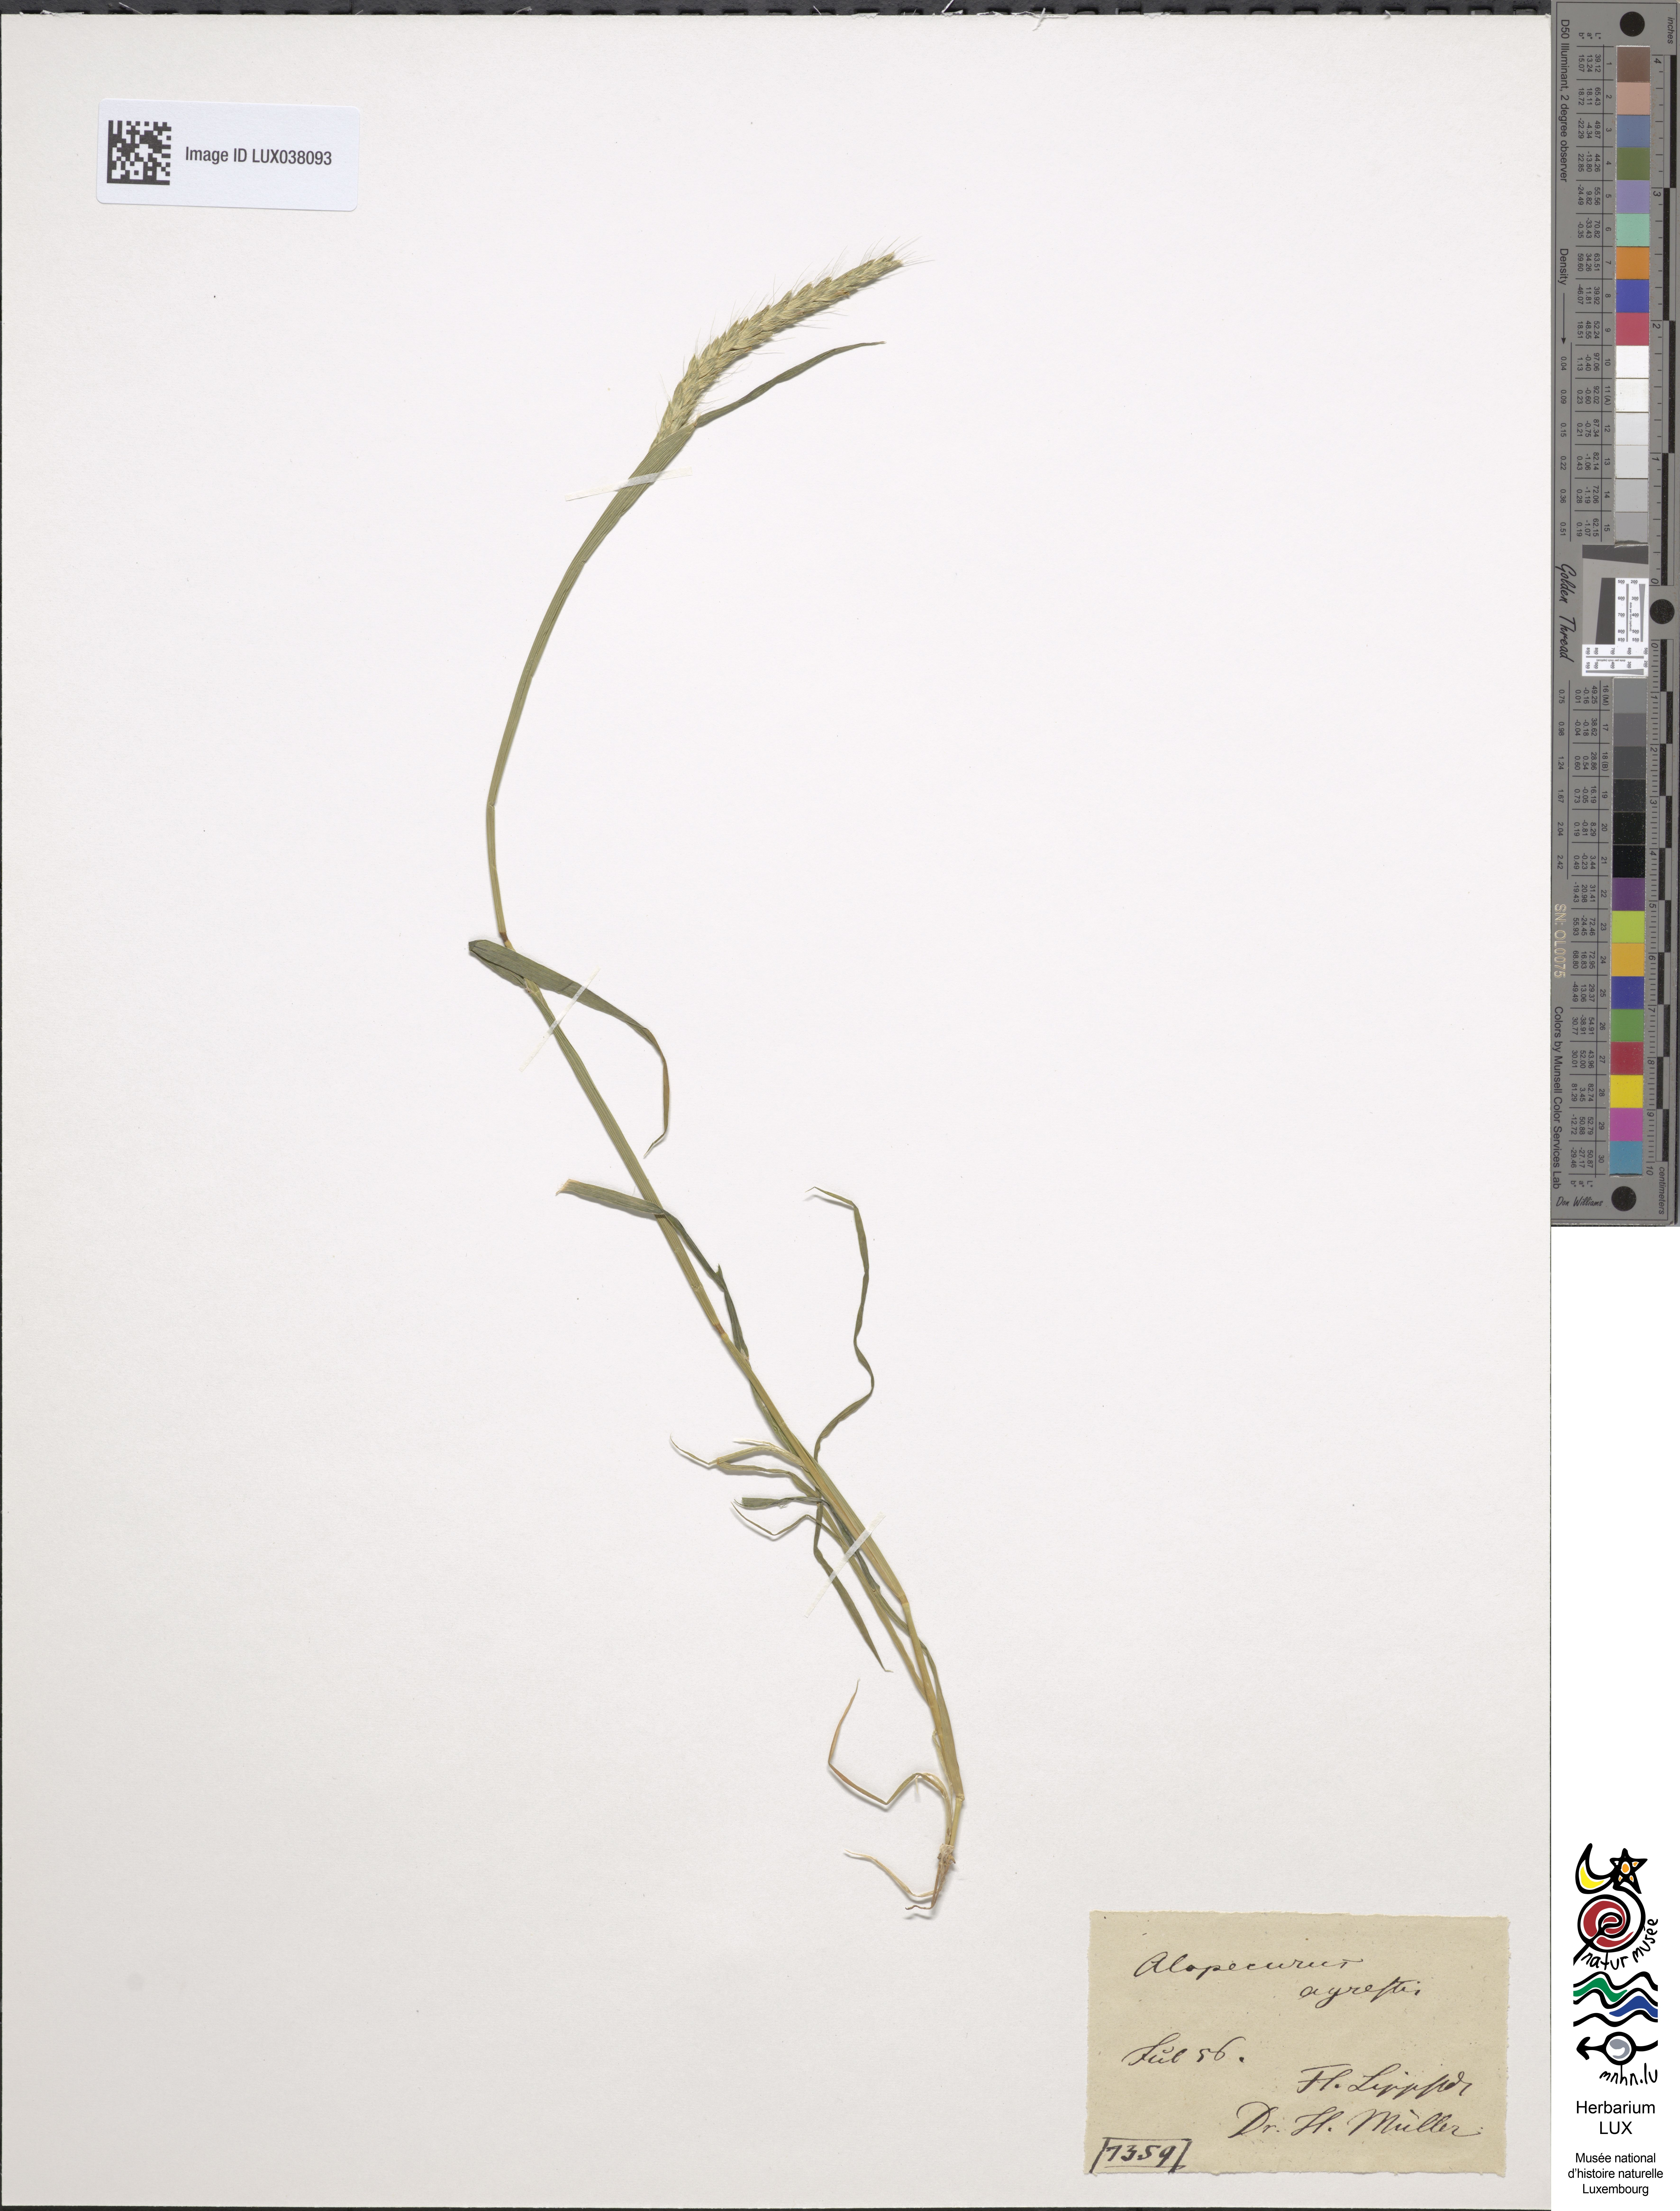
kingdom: Plantae
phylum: Tracheophyta
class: Liliopsida
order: Poales
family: Poaceae
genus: Alopecurus
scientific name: Alopecurus myosuroides
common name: Black-grass
